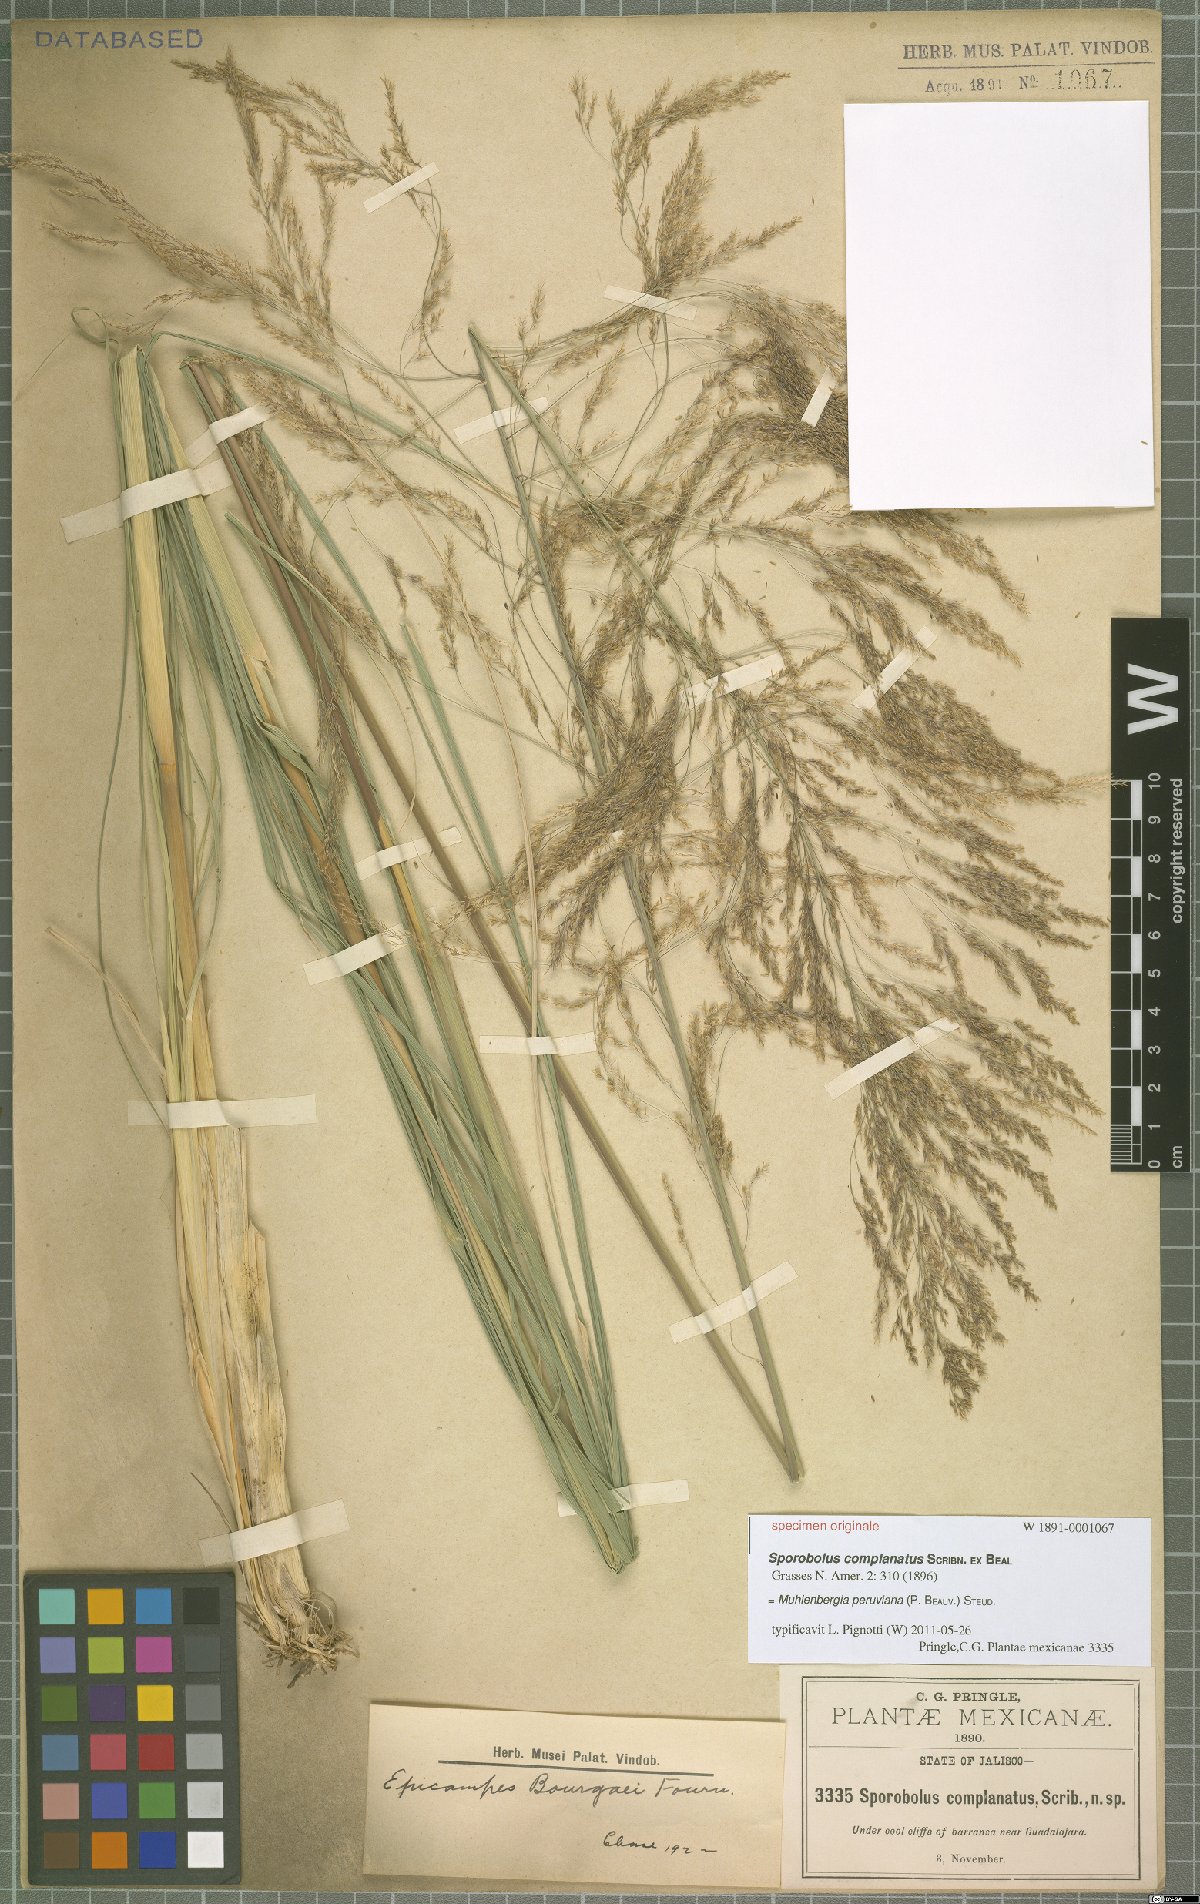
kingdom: Plantae
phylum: Tracheophyta
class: Liliopsida
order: Poales
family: Poaceae
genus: Muhlenbergia
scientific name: Muhlenbergia peruviana
